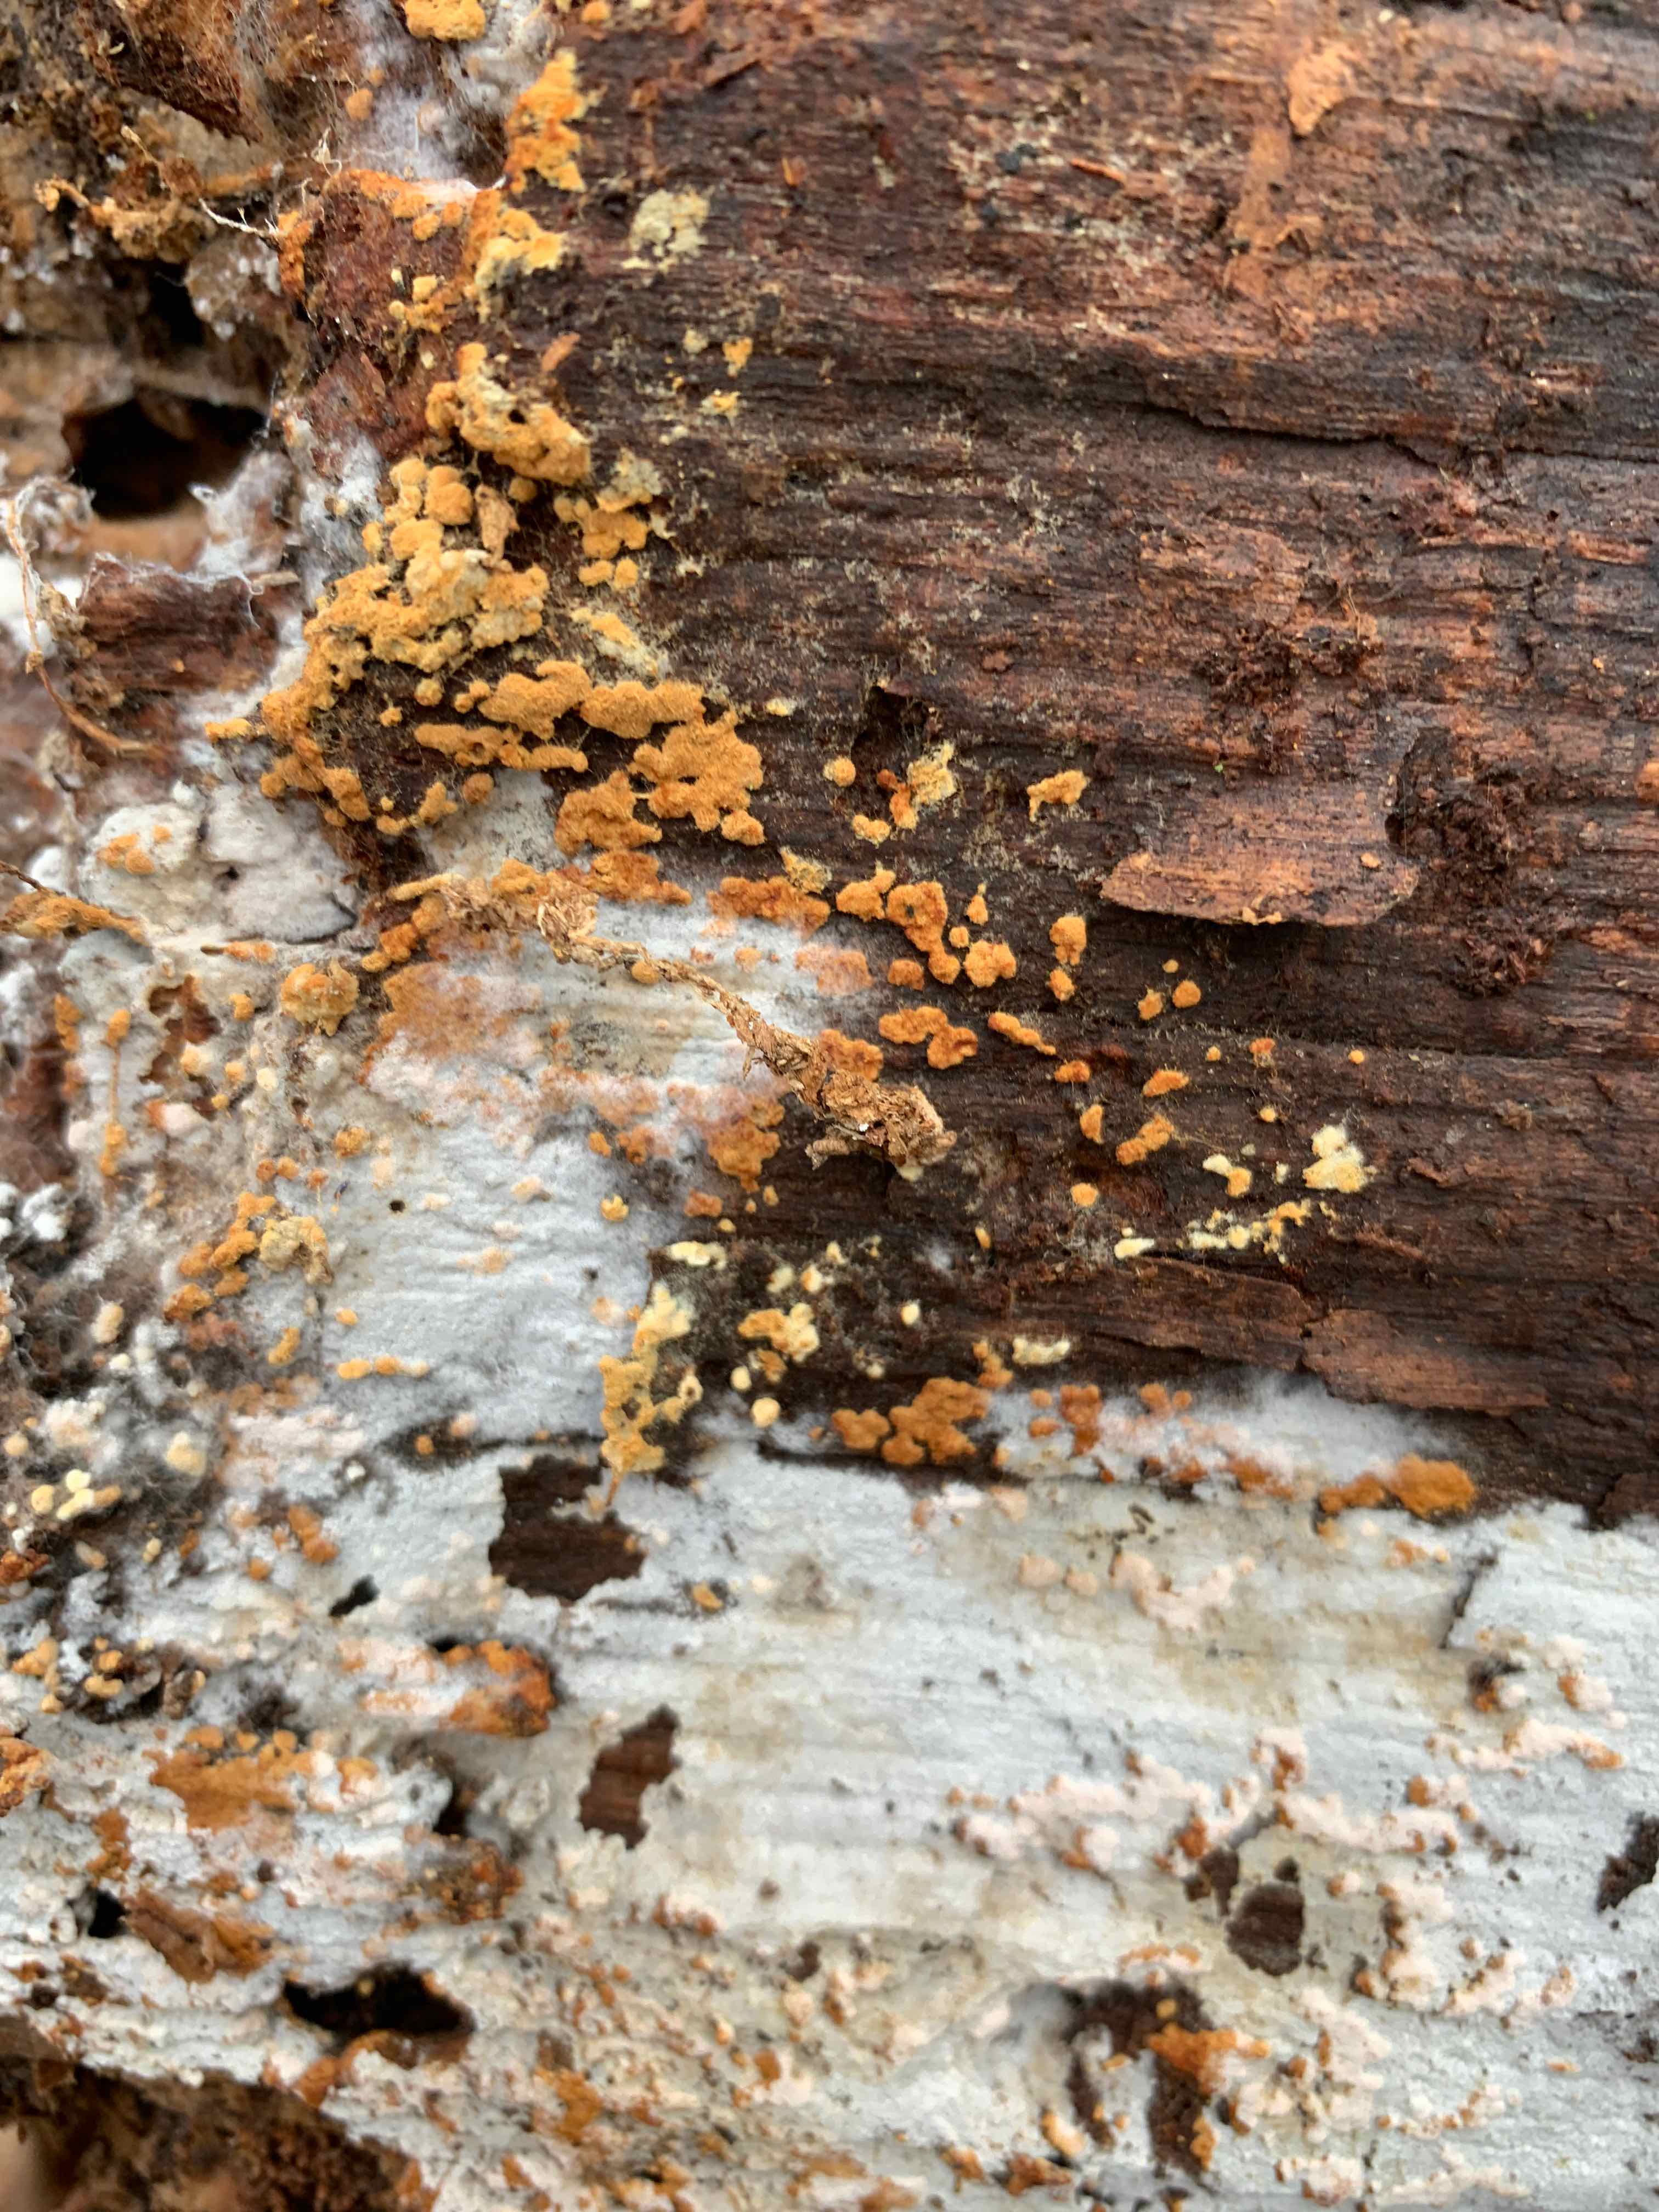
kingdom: Fungi
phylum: Basidiomycota
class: Agaricomycetes
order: Cantharellales
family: Botryobasidiaceae
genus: Botryobasidium
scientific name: Botryobasidium aureum
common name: gylden spindhinde
